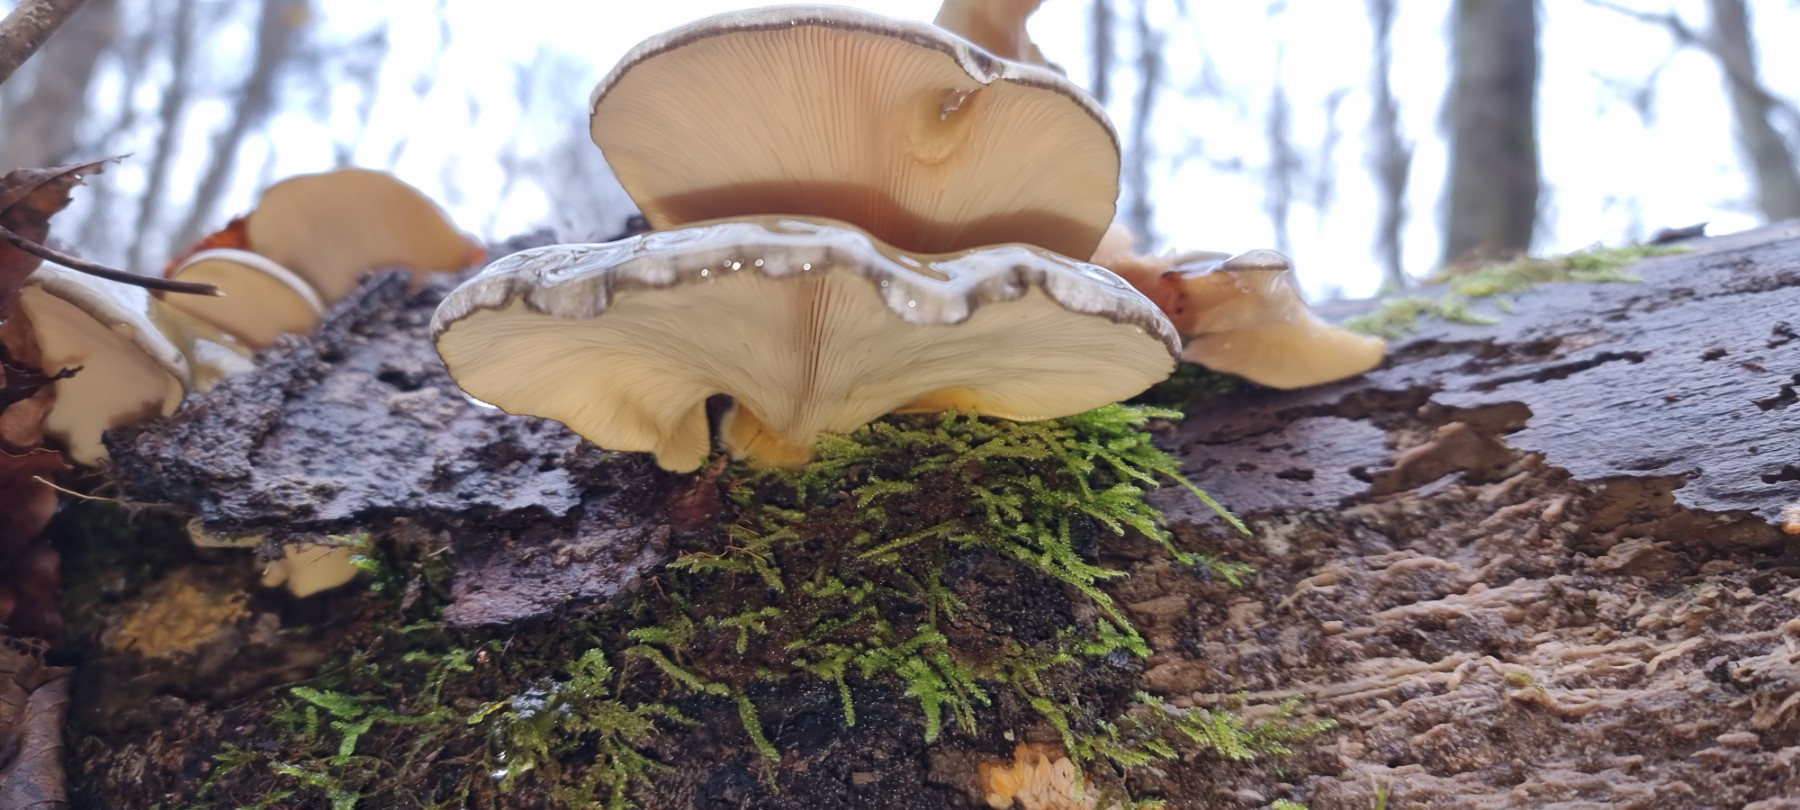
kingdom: Fungi
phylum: Basidiomycota
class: Agaricomycetes
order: Agaricales
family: Sarcomyxaceae
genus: Sarcomyxa
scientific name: Sarcomyxa serotina
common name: gummihat
